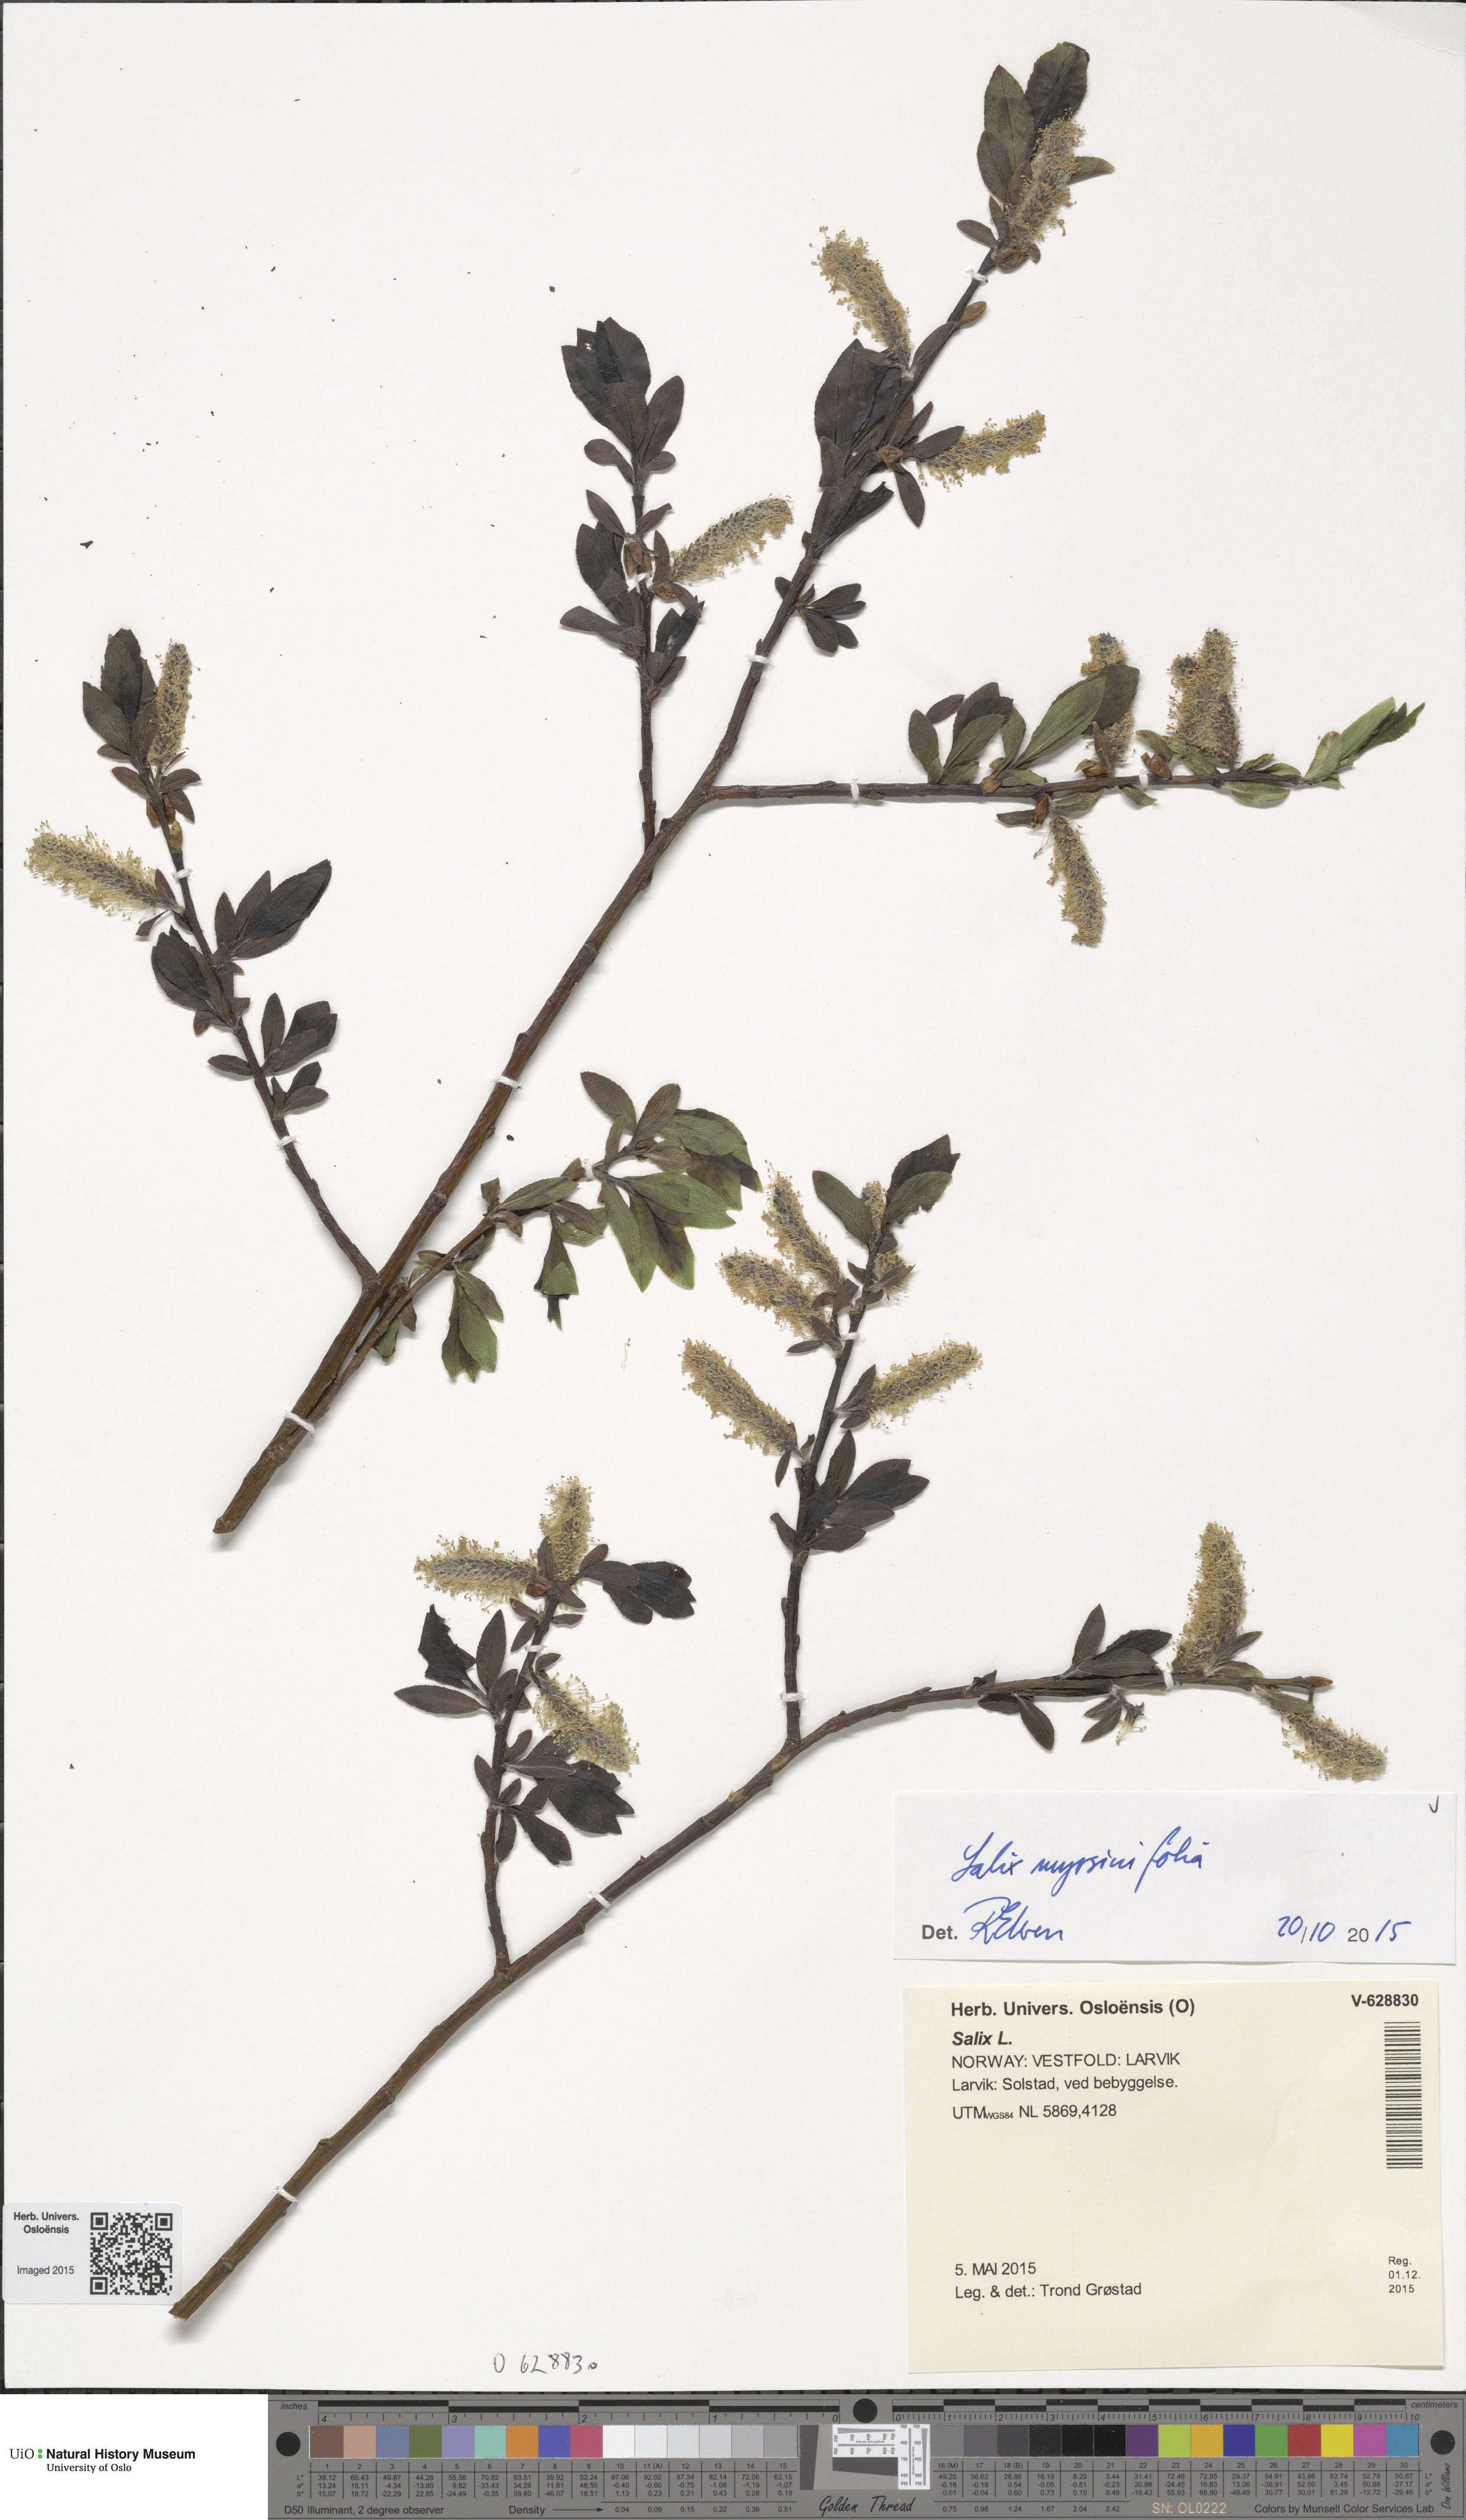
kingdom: Plantae
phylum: Tracheophyta
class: Magnoliopsida
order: Malpighiales
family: Salicaceae
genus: Salix
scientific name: Salix myrsinifolia
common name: Dark-leaved willow
